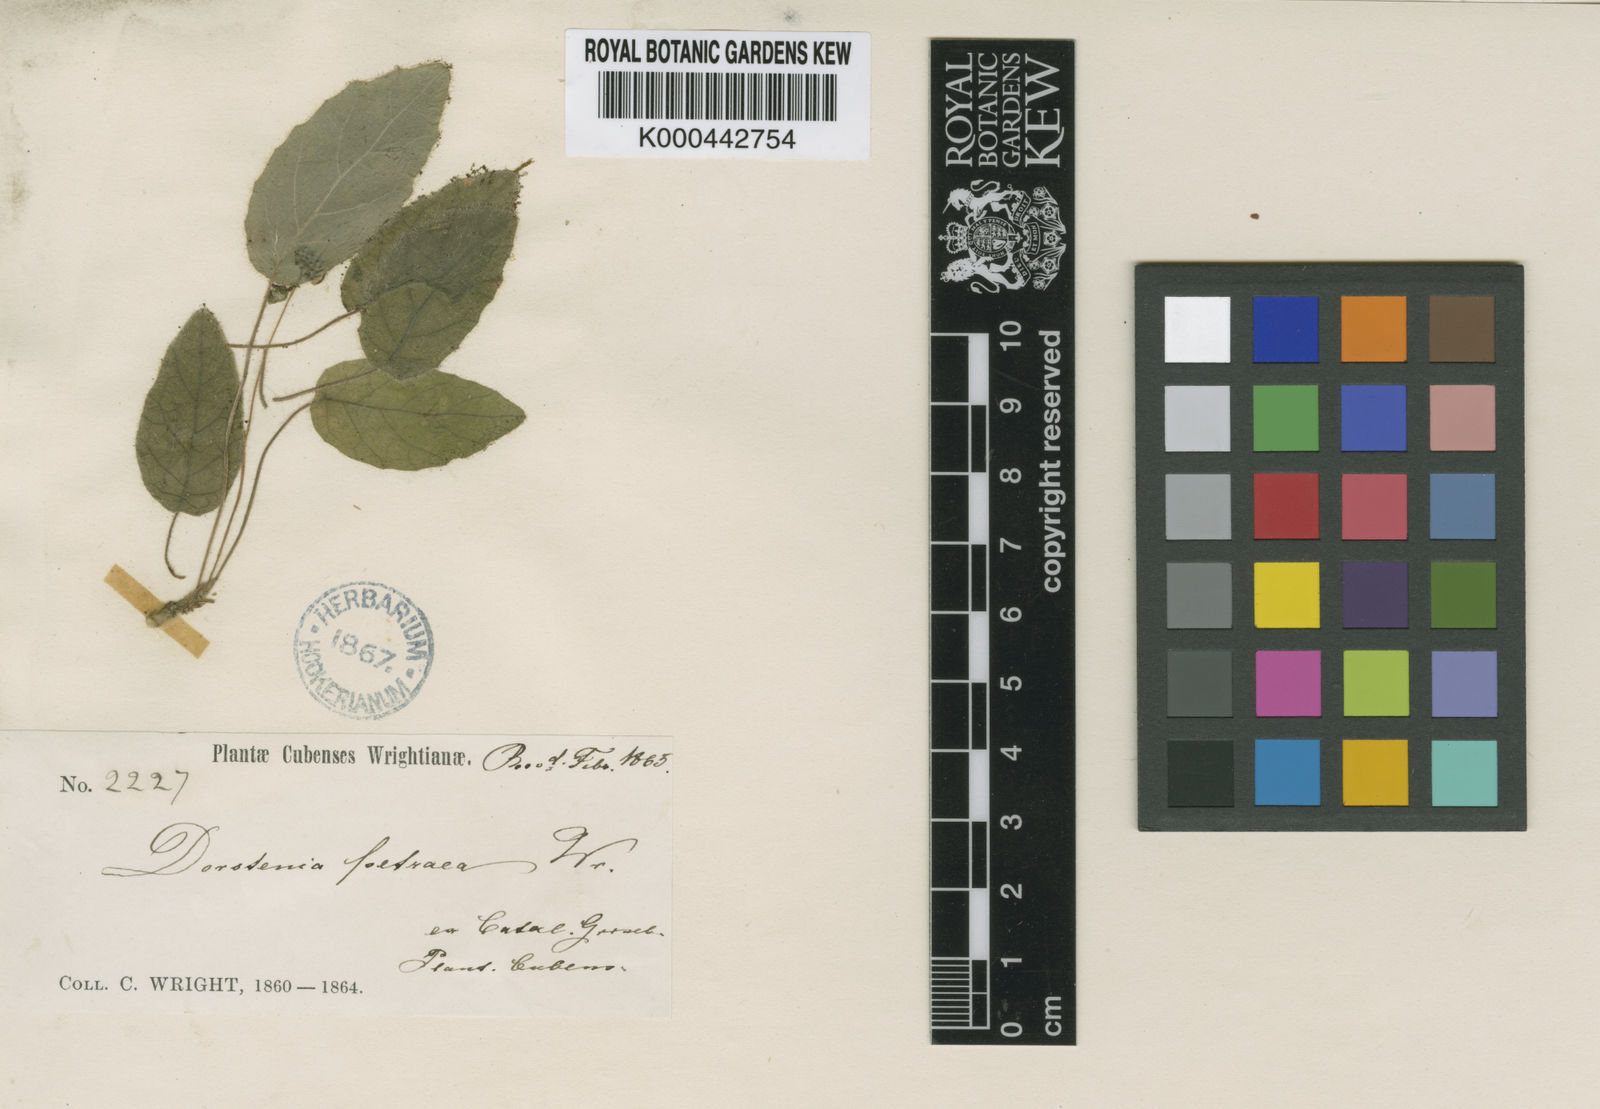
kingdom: Plantae
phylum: Tracheophyta
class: Magnoliopsida
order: Rosales
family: Moraceae
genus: Dorstenia
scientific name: Dorstenia petraea
